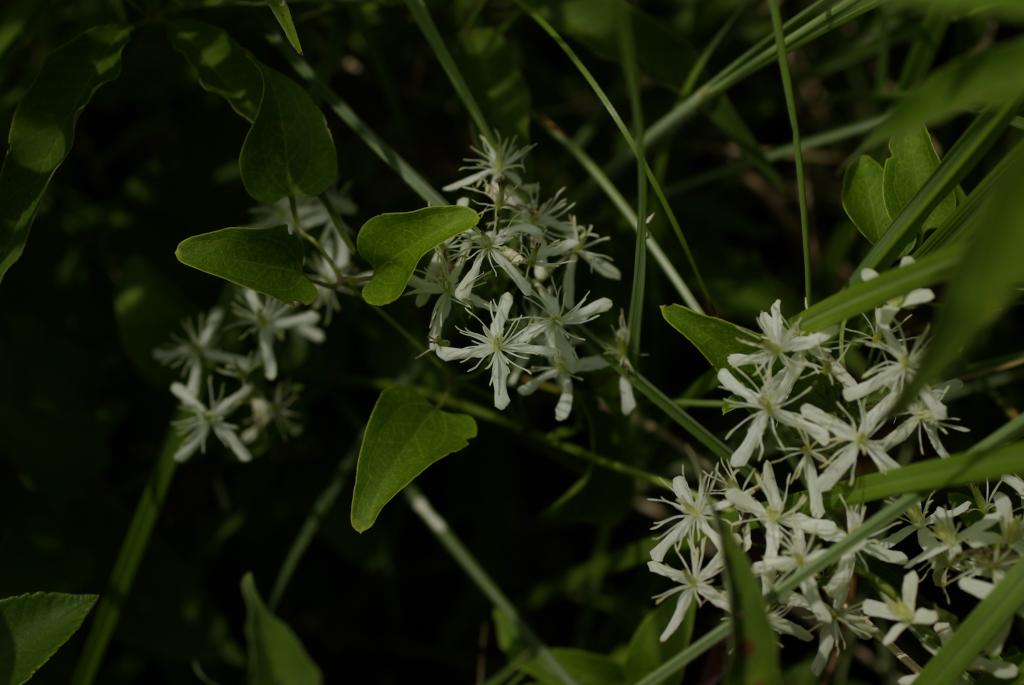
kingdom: Plantae
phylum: Tracheophyta
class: Magnoliopsida
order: Ranunculales
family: Ranunculaceae
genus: Clematis
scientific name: Clematis chinensis
